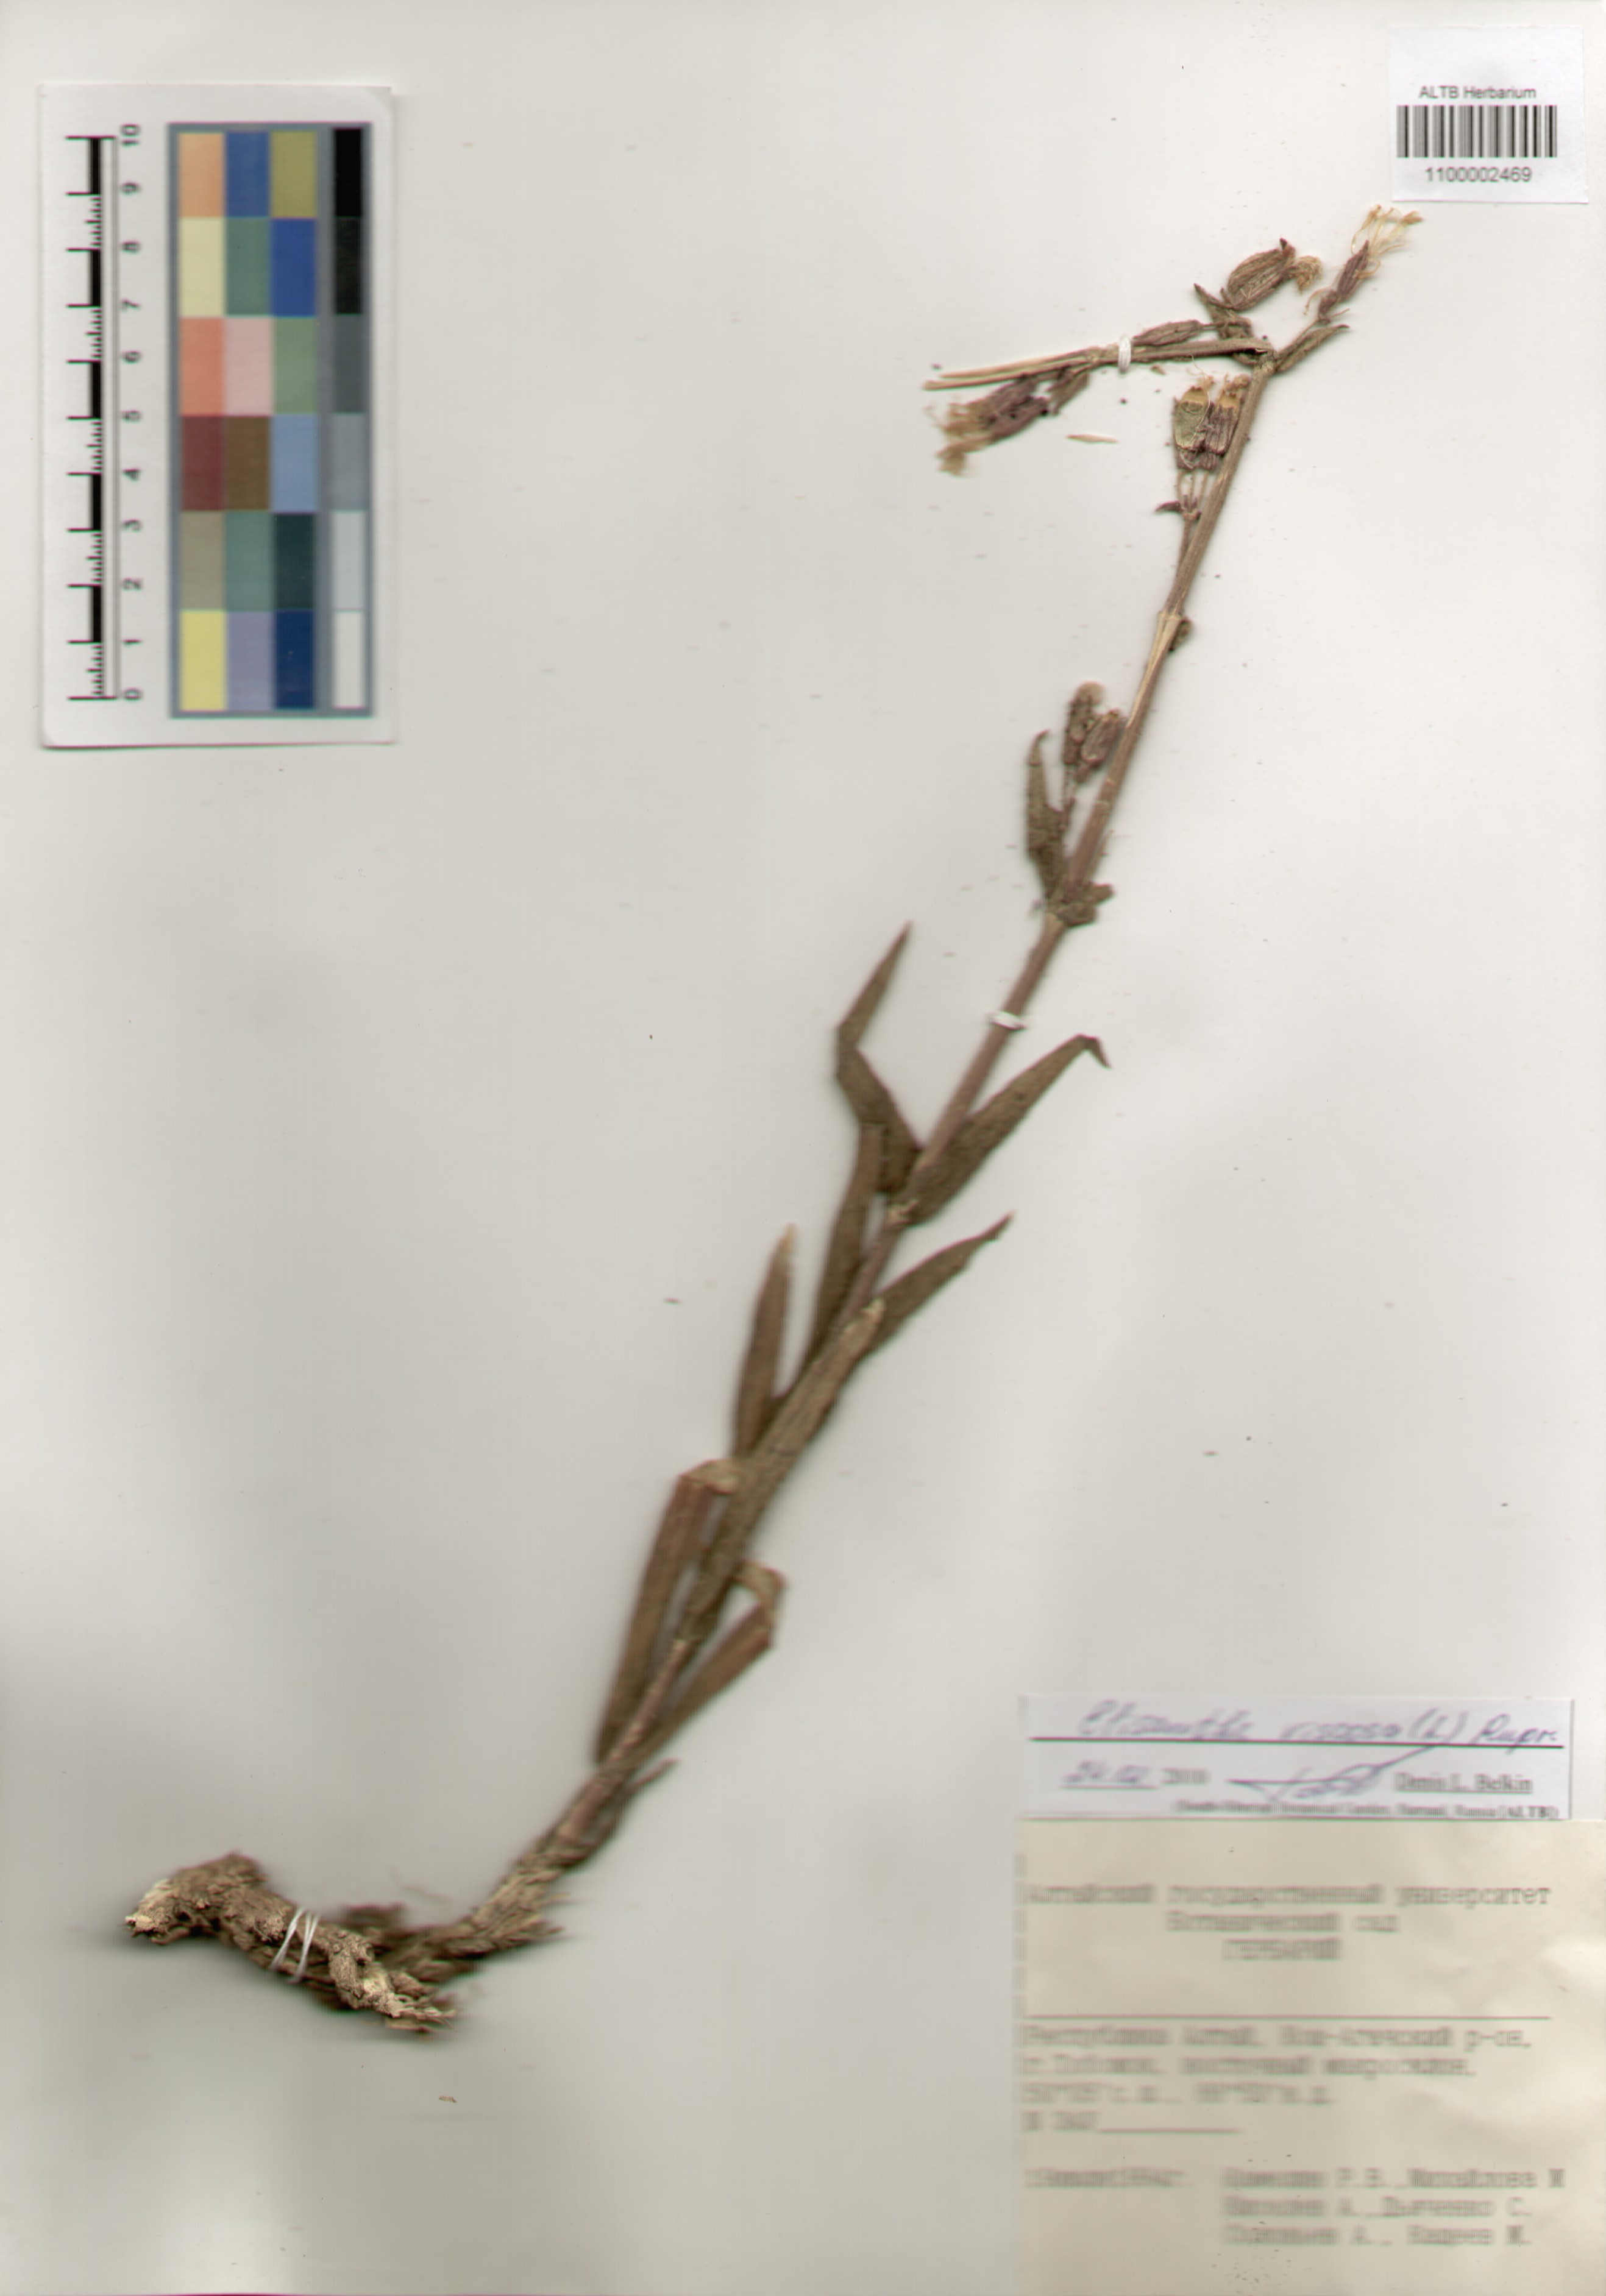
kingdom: Plantae
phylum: Tracheophyta
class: Magnoliopsida
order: Caryophyllales
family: Caryophyllaceae
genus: Silene
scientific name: Silene viscosa
